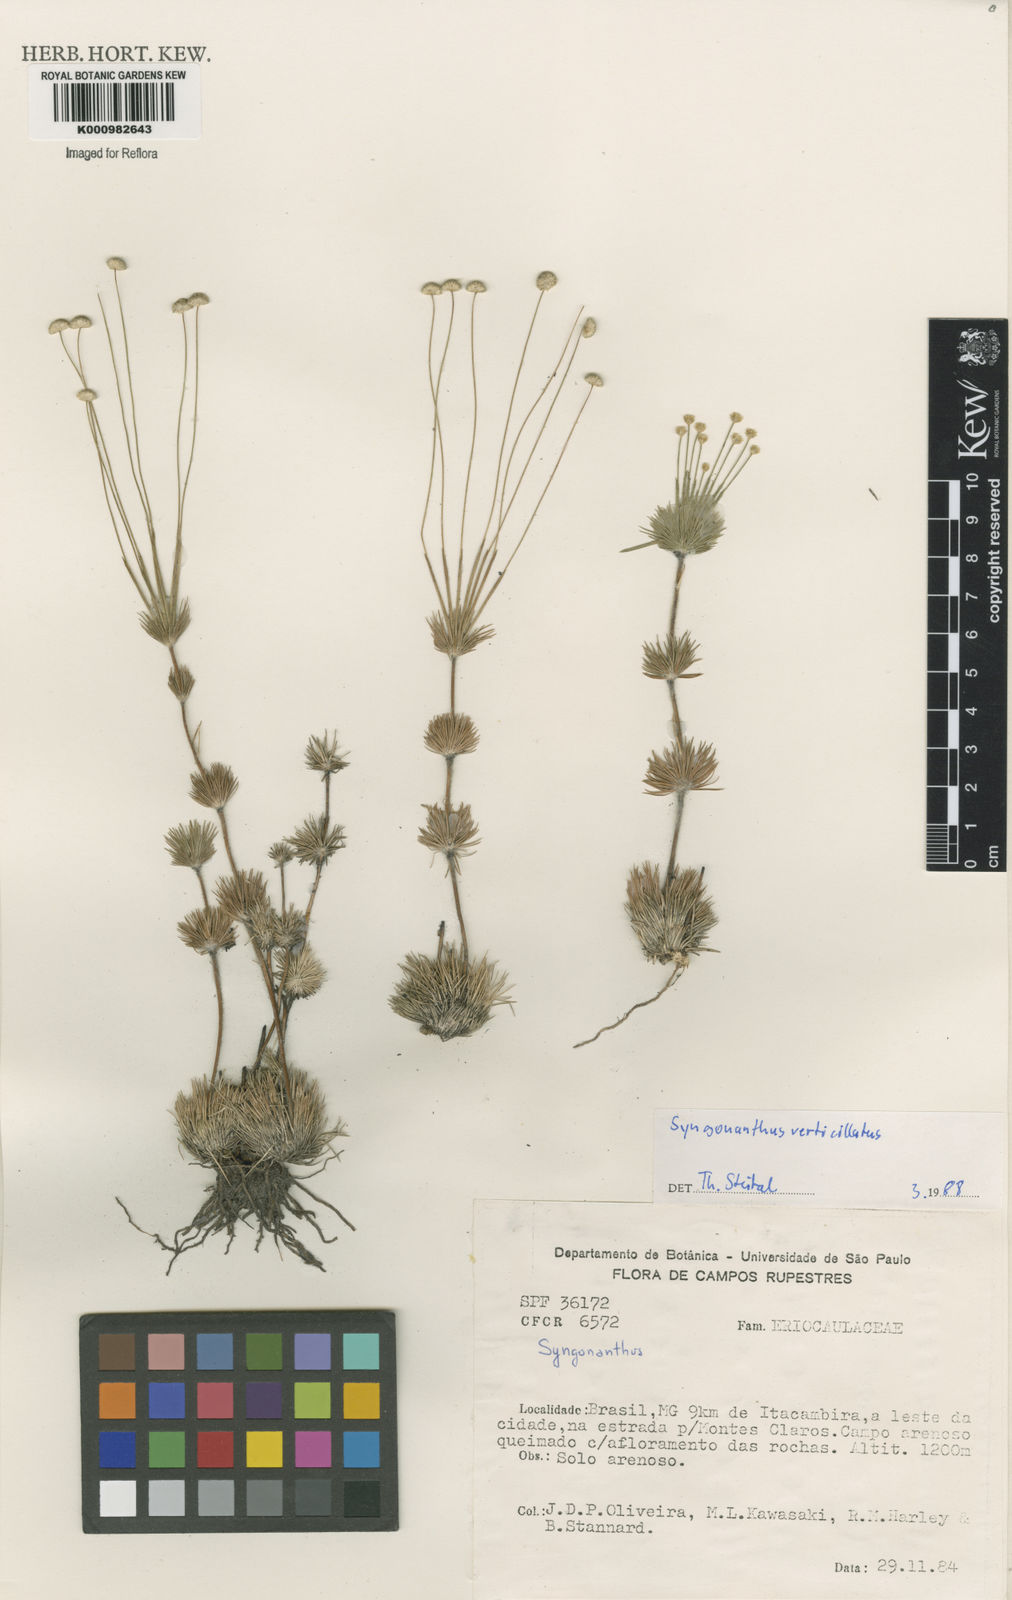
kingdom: Plantae
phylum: Tracheophyta
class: Liliopsida
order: Poales
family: Eriocaulaceae
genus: Syngonanthus
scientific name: Syngonanthus verticillatus
